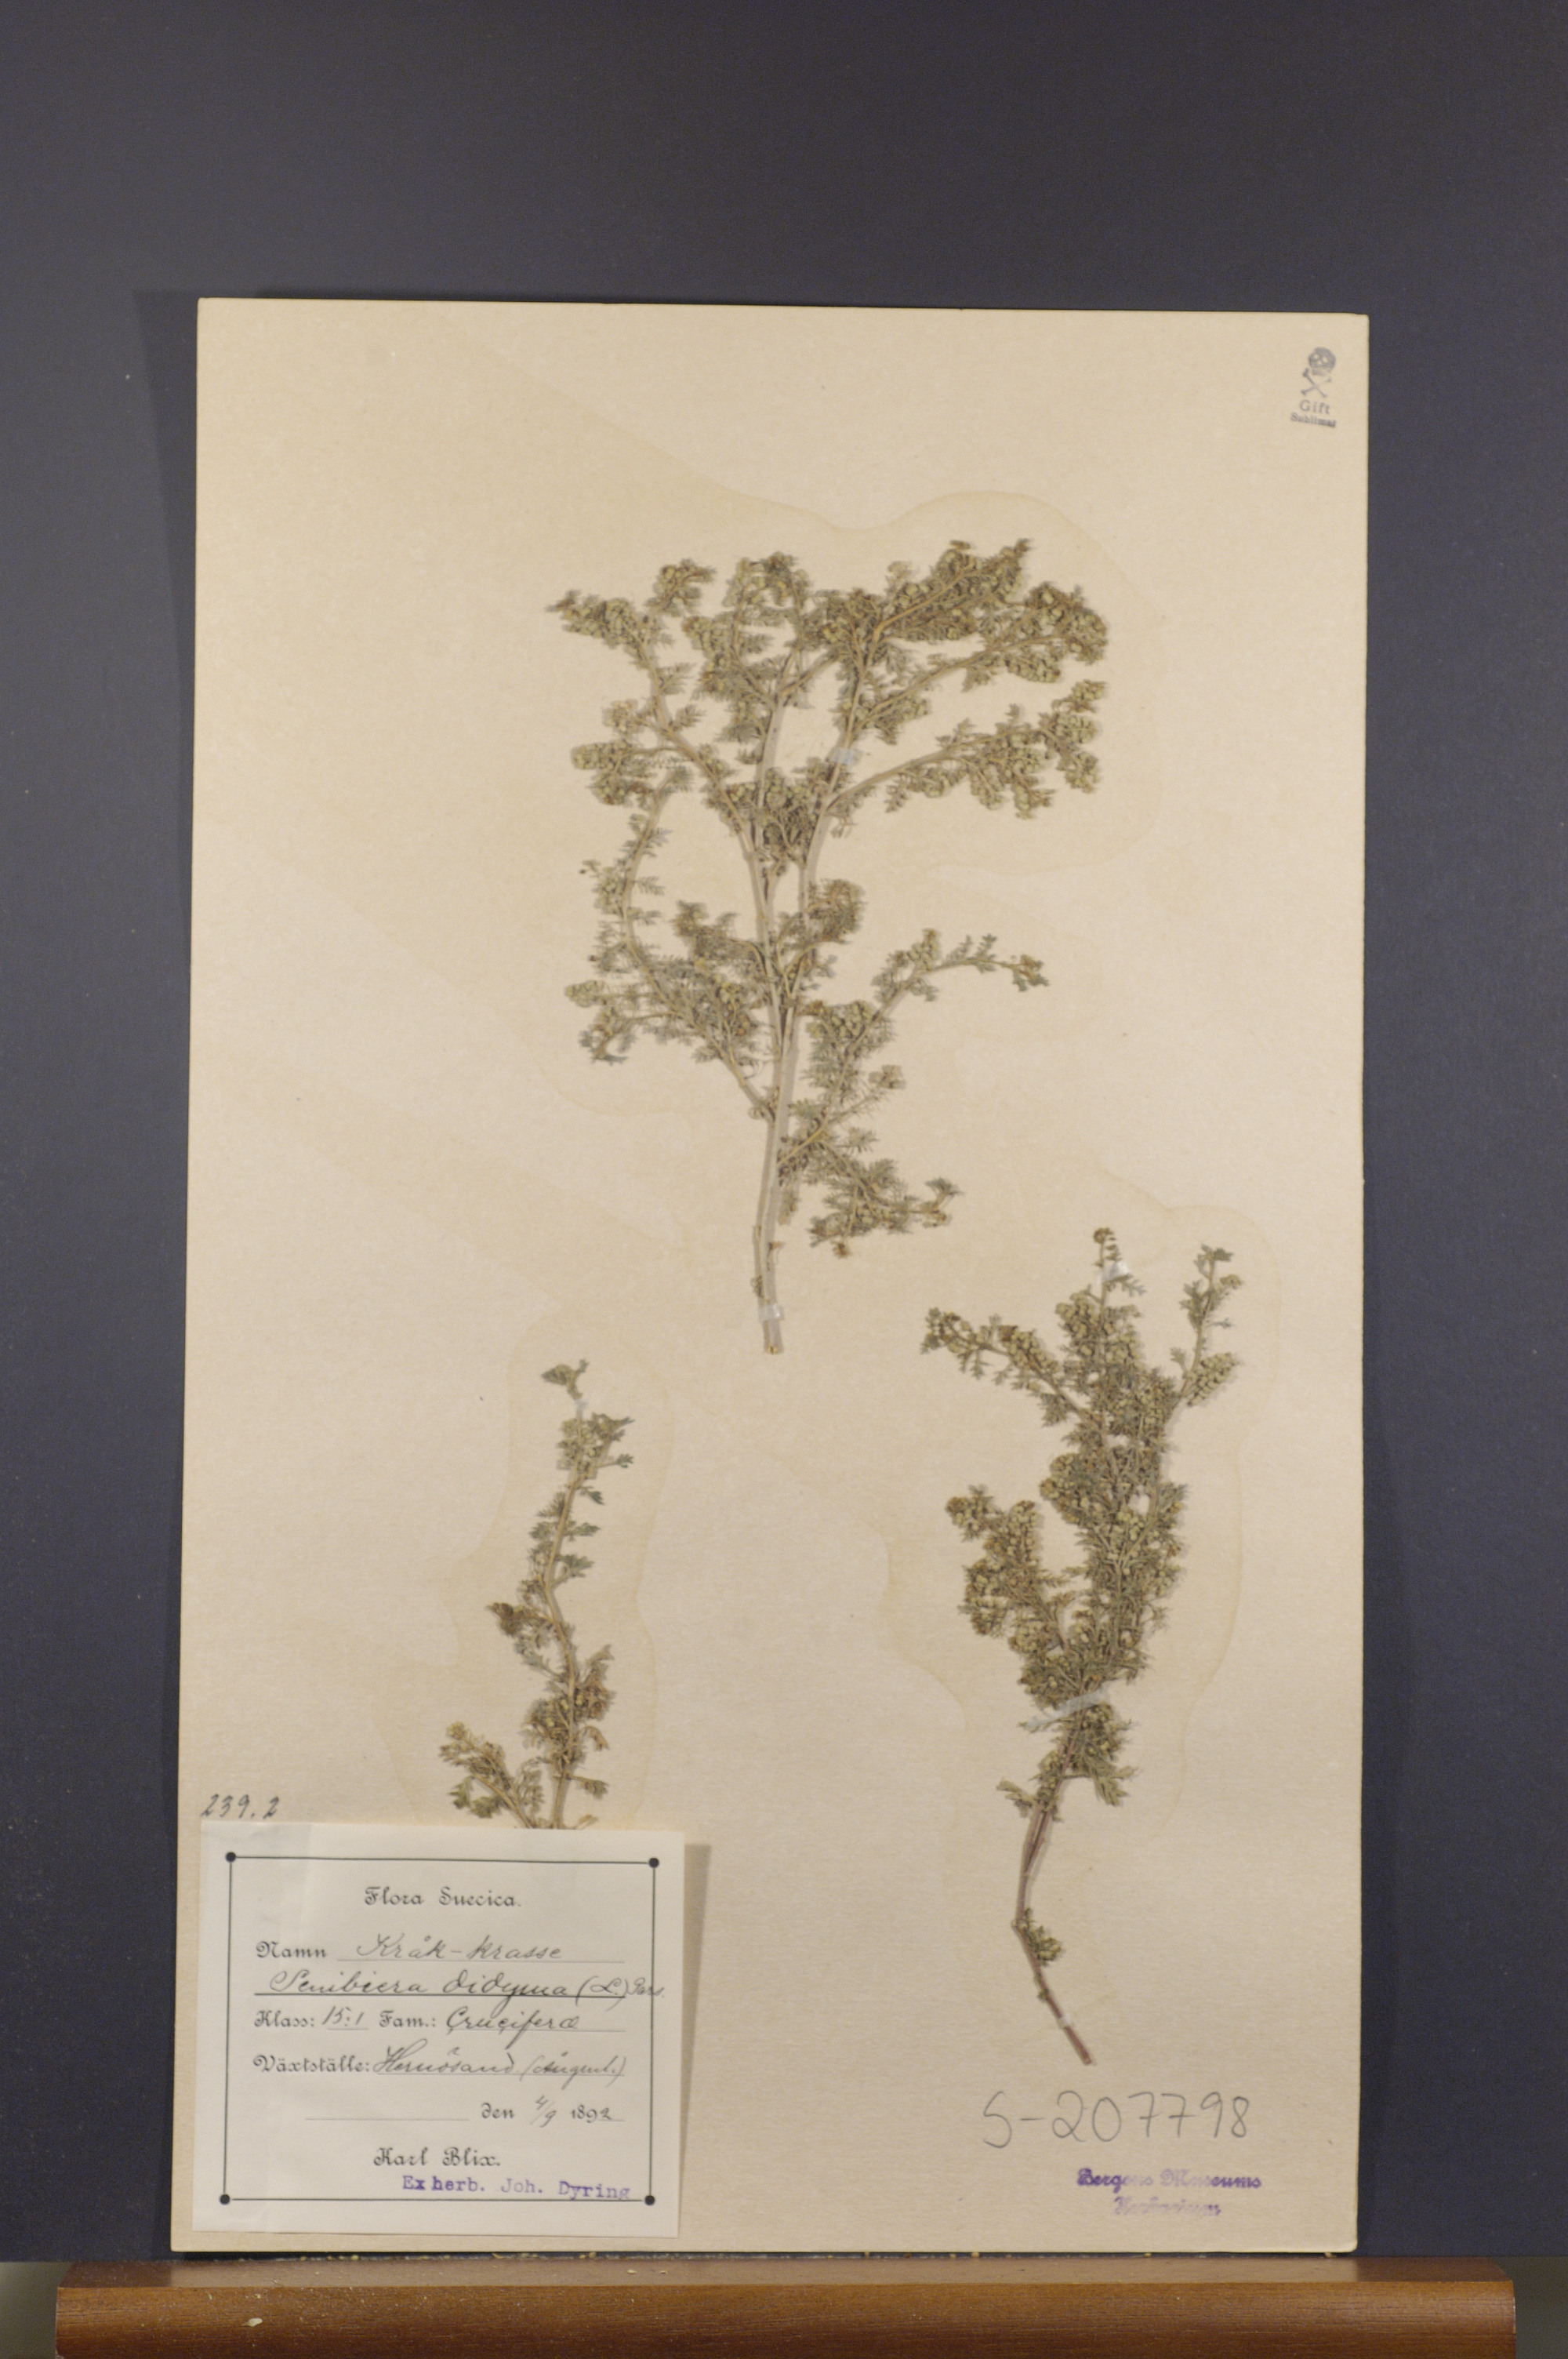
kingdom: Plantae
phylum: Tracheophyta
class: Magnoliopsida
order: Brassicales
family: Brassicaceae
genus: Lepidium
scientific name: Lepidium didymum
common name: Lesser swinecress
